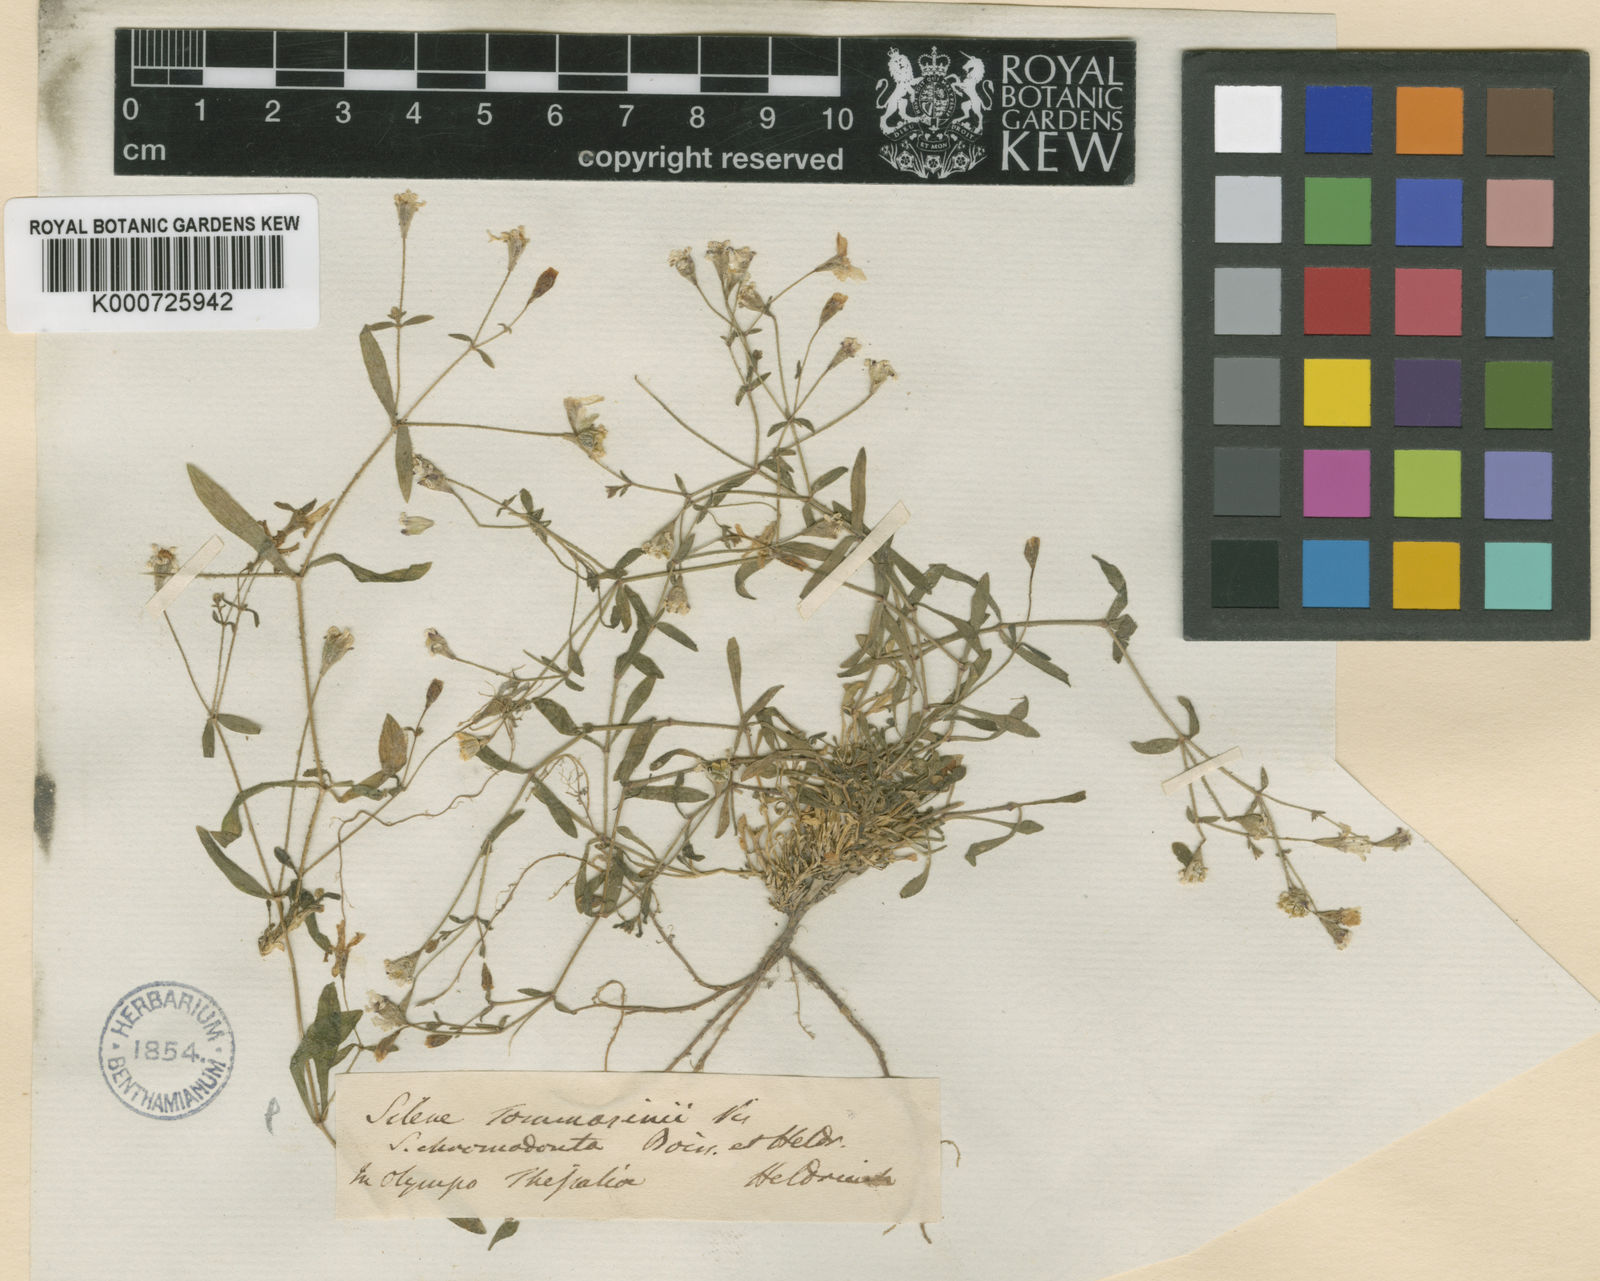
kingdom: Plantae
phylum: Tracheophyta
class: Magnoliopsida
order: Caryophyllales
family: Caryophyllaceae
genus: Heliosperma
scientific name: Heliosperma pusillum
